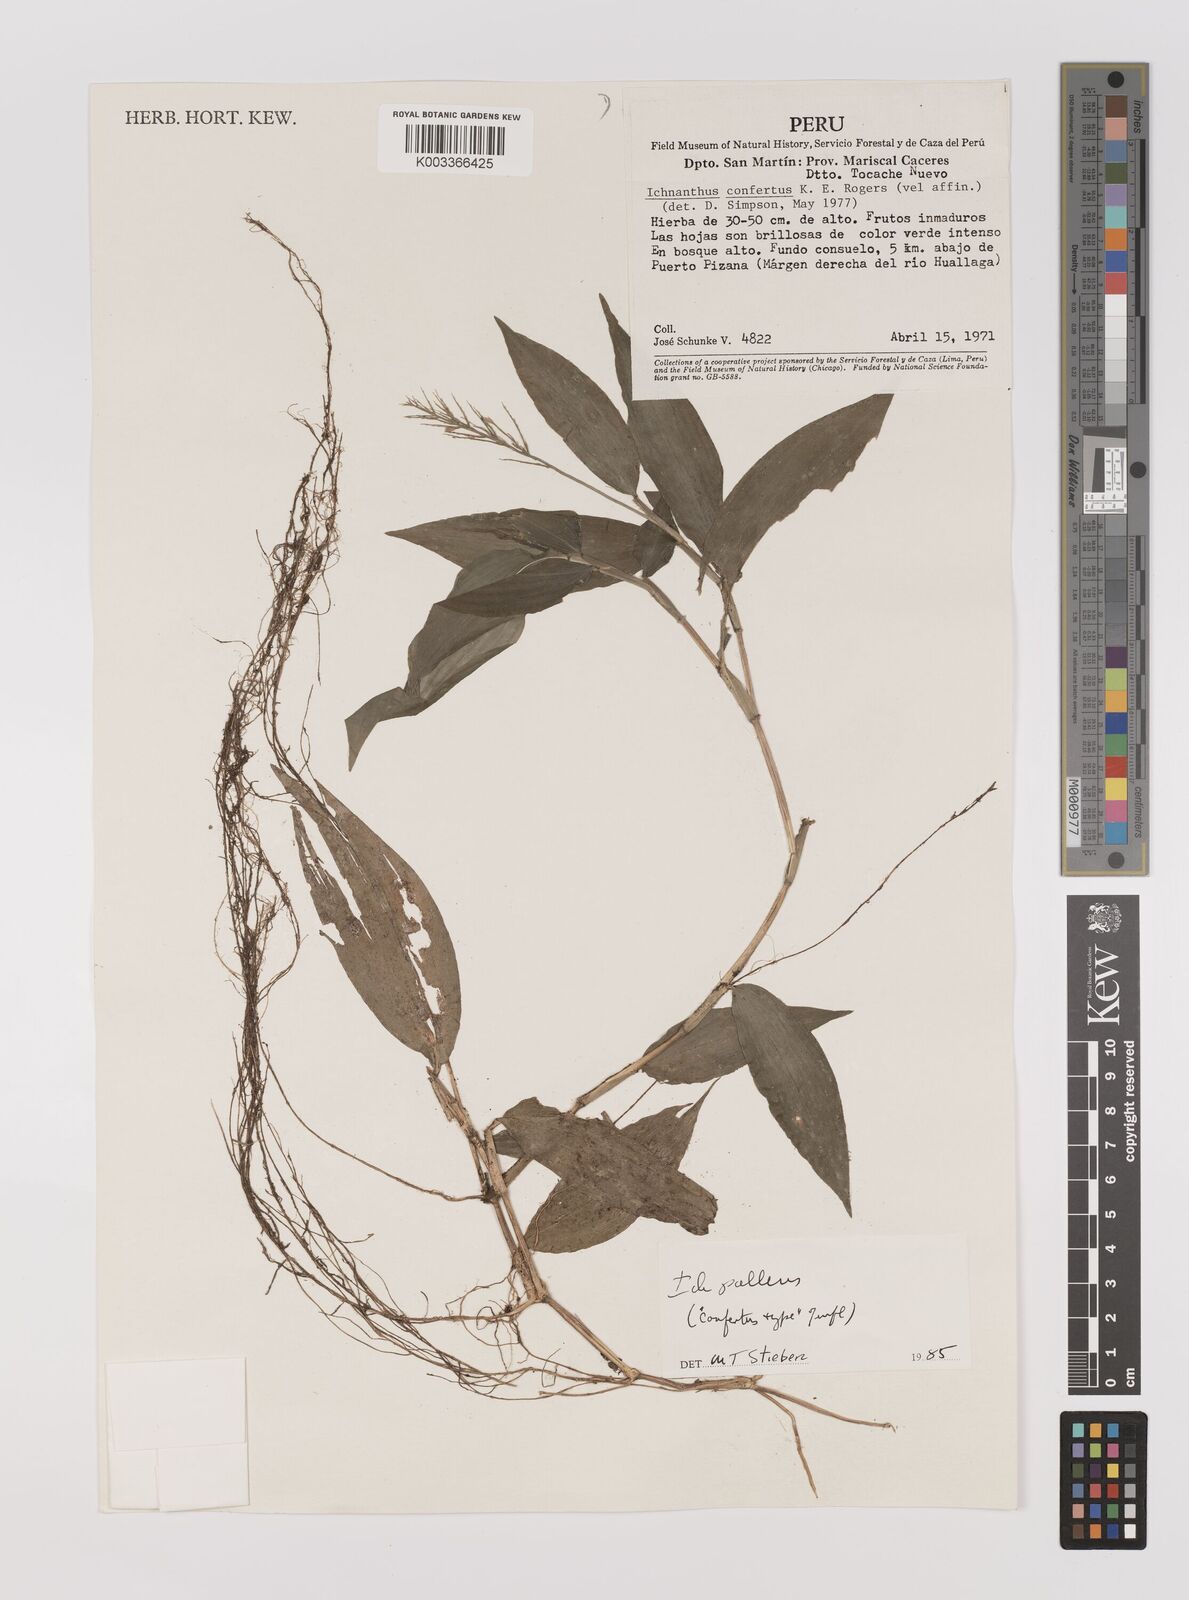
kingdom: Plantae
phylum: Tracheophyta
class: Liliopsida
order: Poales
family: Poaceae
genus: Ichnanthus
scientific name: Ichnanthus pallens
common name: Water grass
